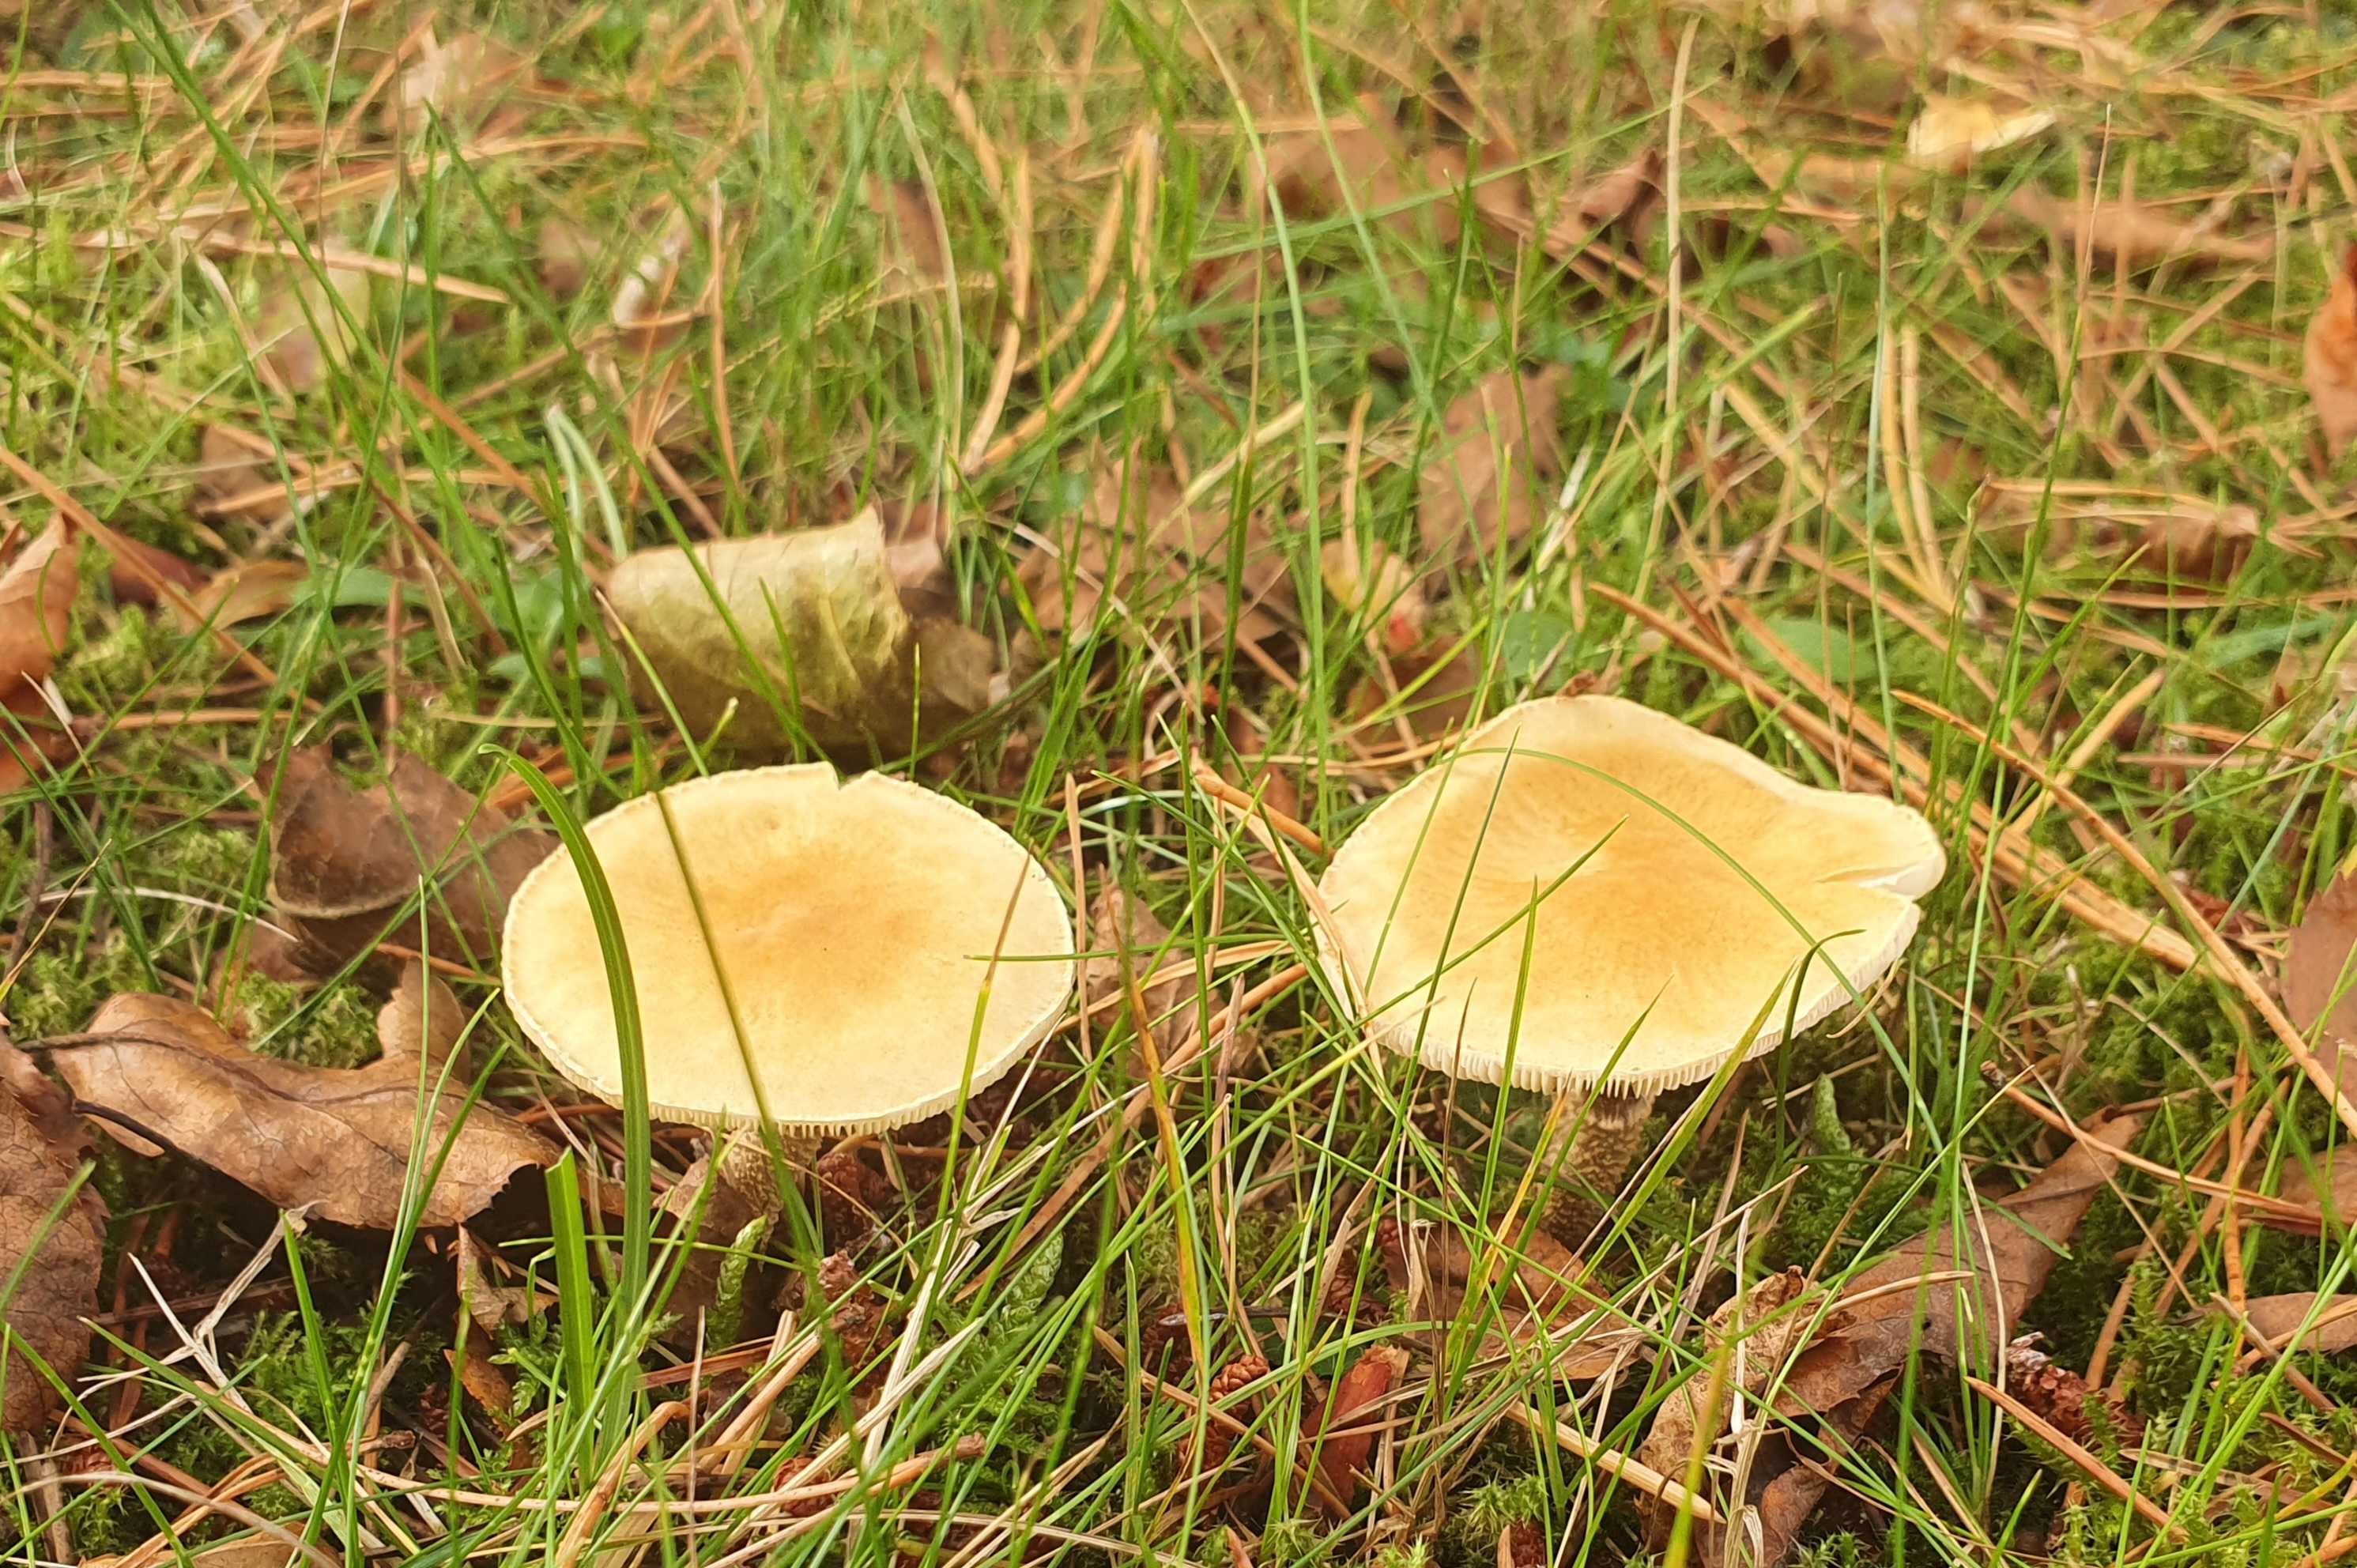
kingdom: Fungi
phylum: Basidiomycota
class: Agaricomycetes
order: Agaricales
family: Tricholomataceae
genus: Cystoderma
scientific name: Cystoderma
